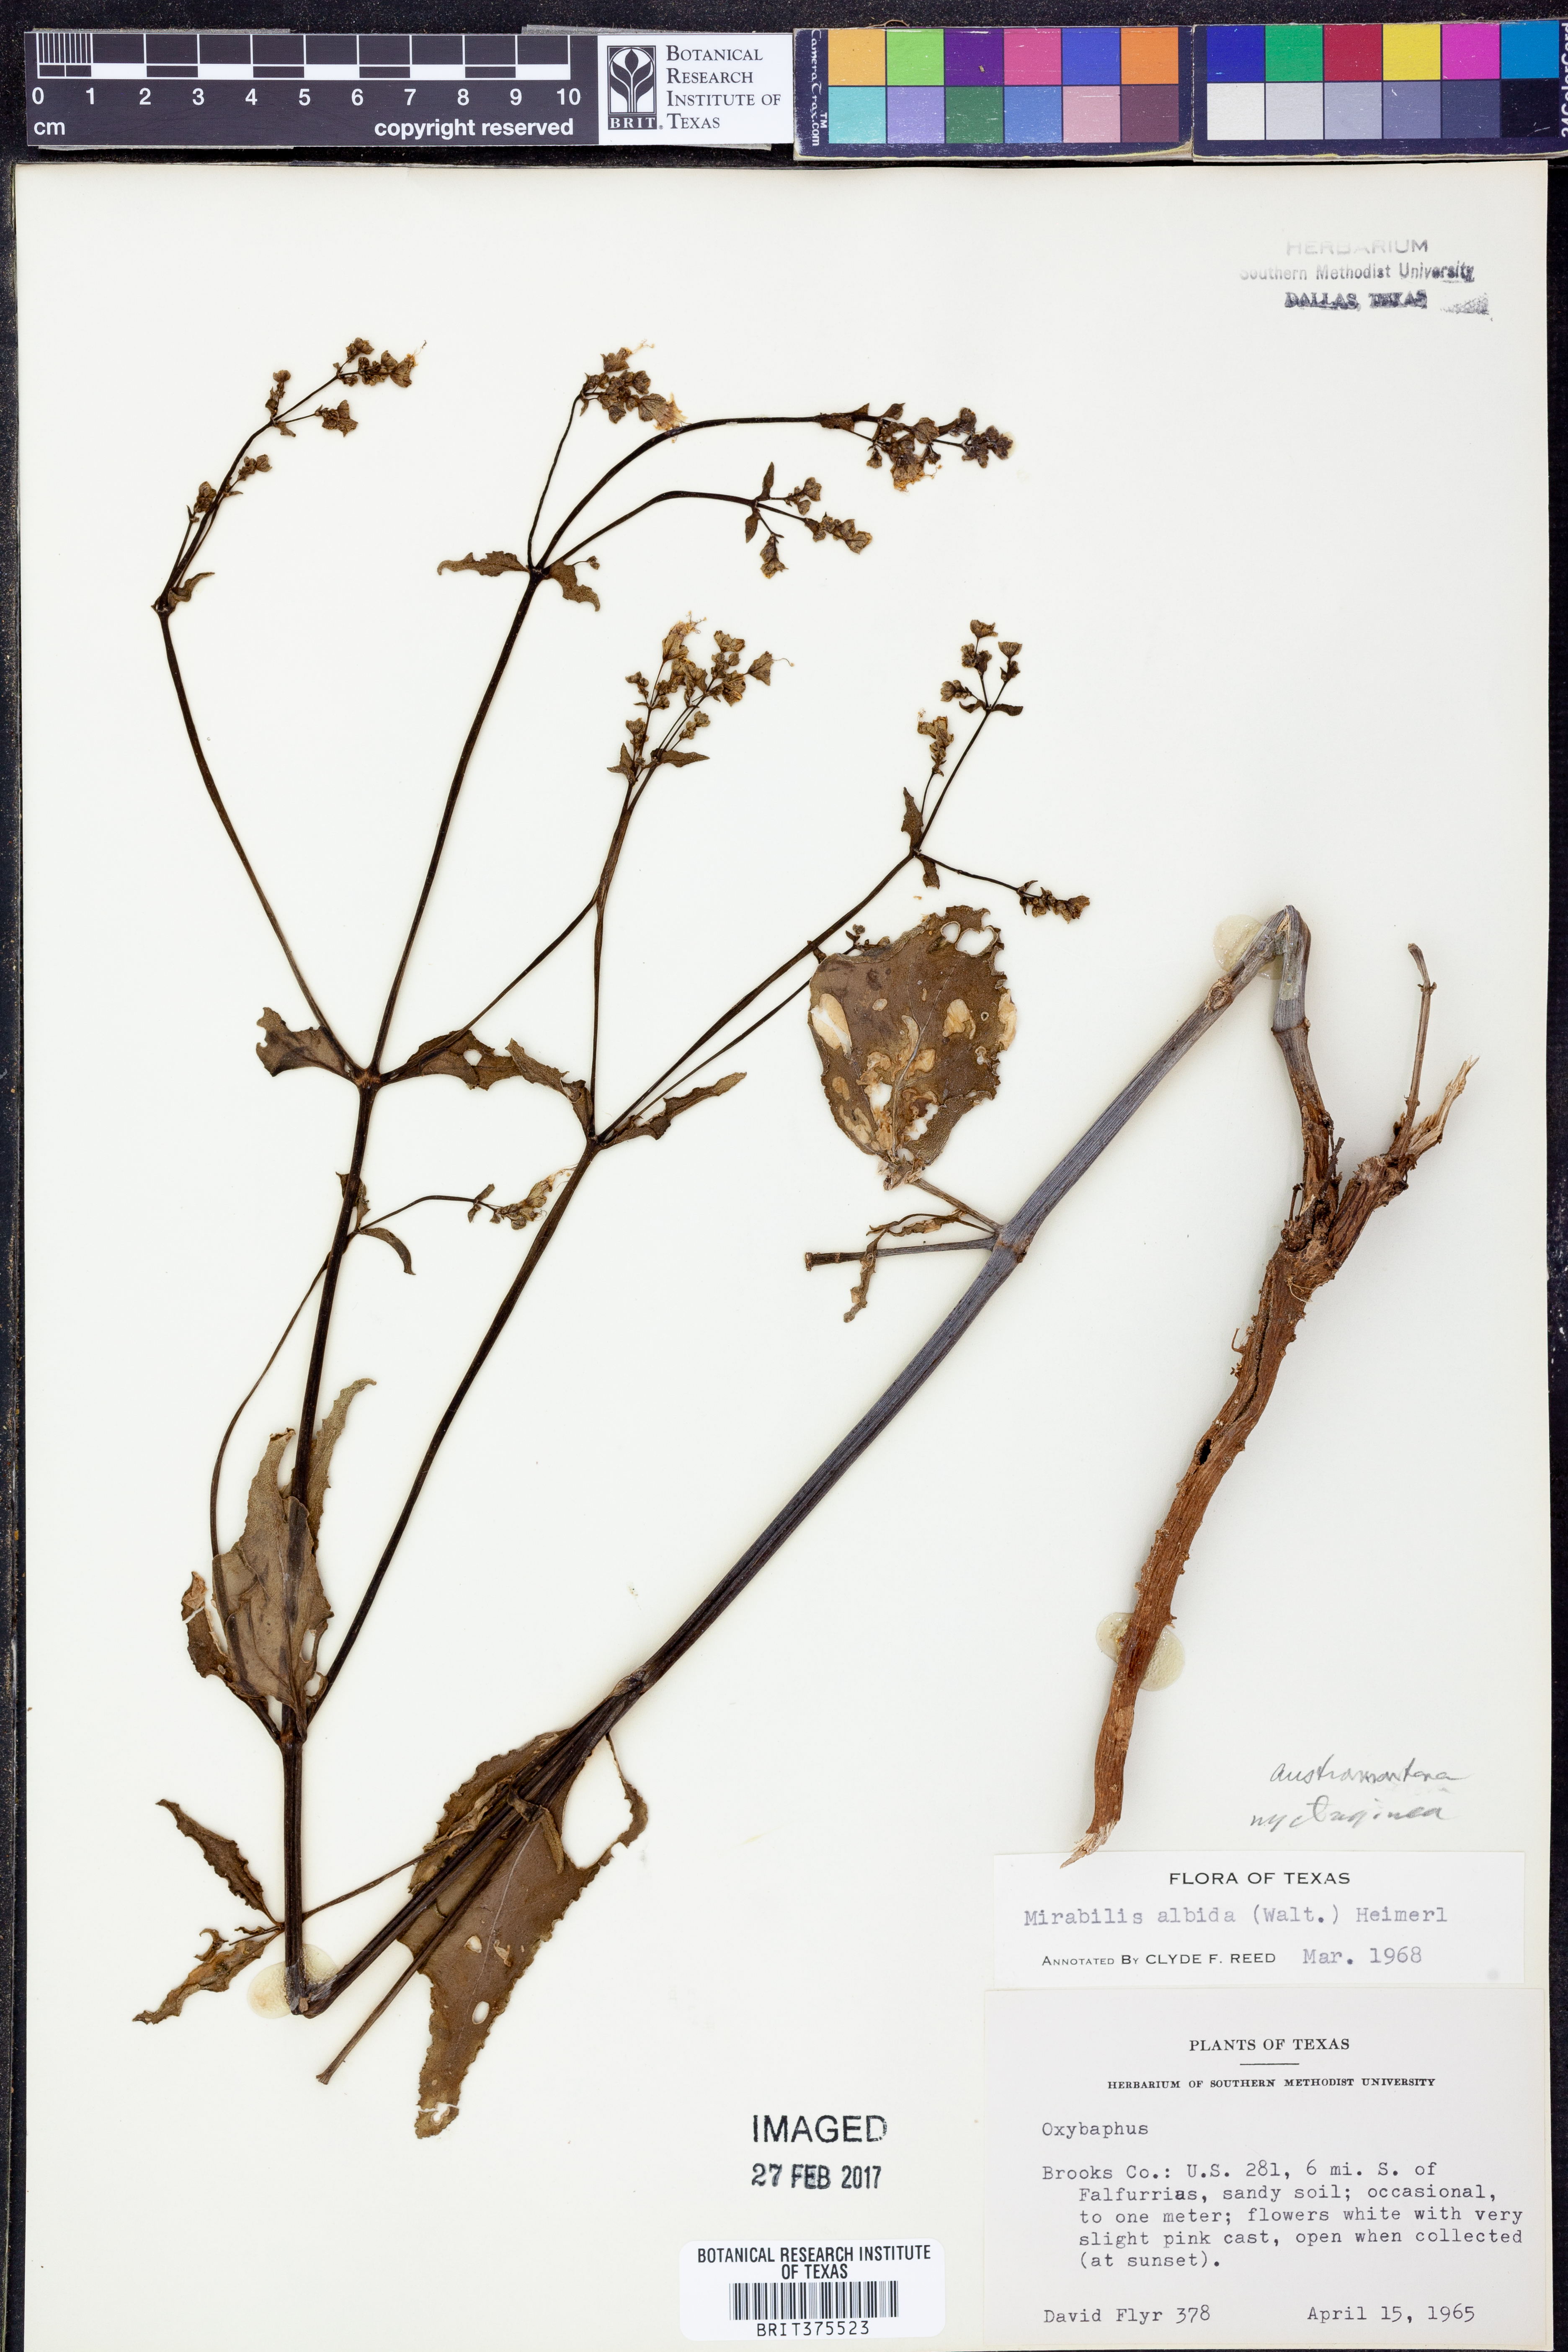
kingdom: Plantae
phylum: Tracheophyta
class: Magnoliopsida
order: Caryophyllales
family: Nyctaginaceae
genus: Mirabilis
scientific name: Mirabilis albida
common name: Hairy four-o'clock
